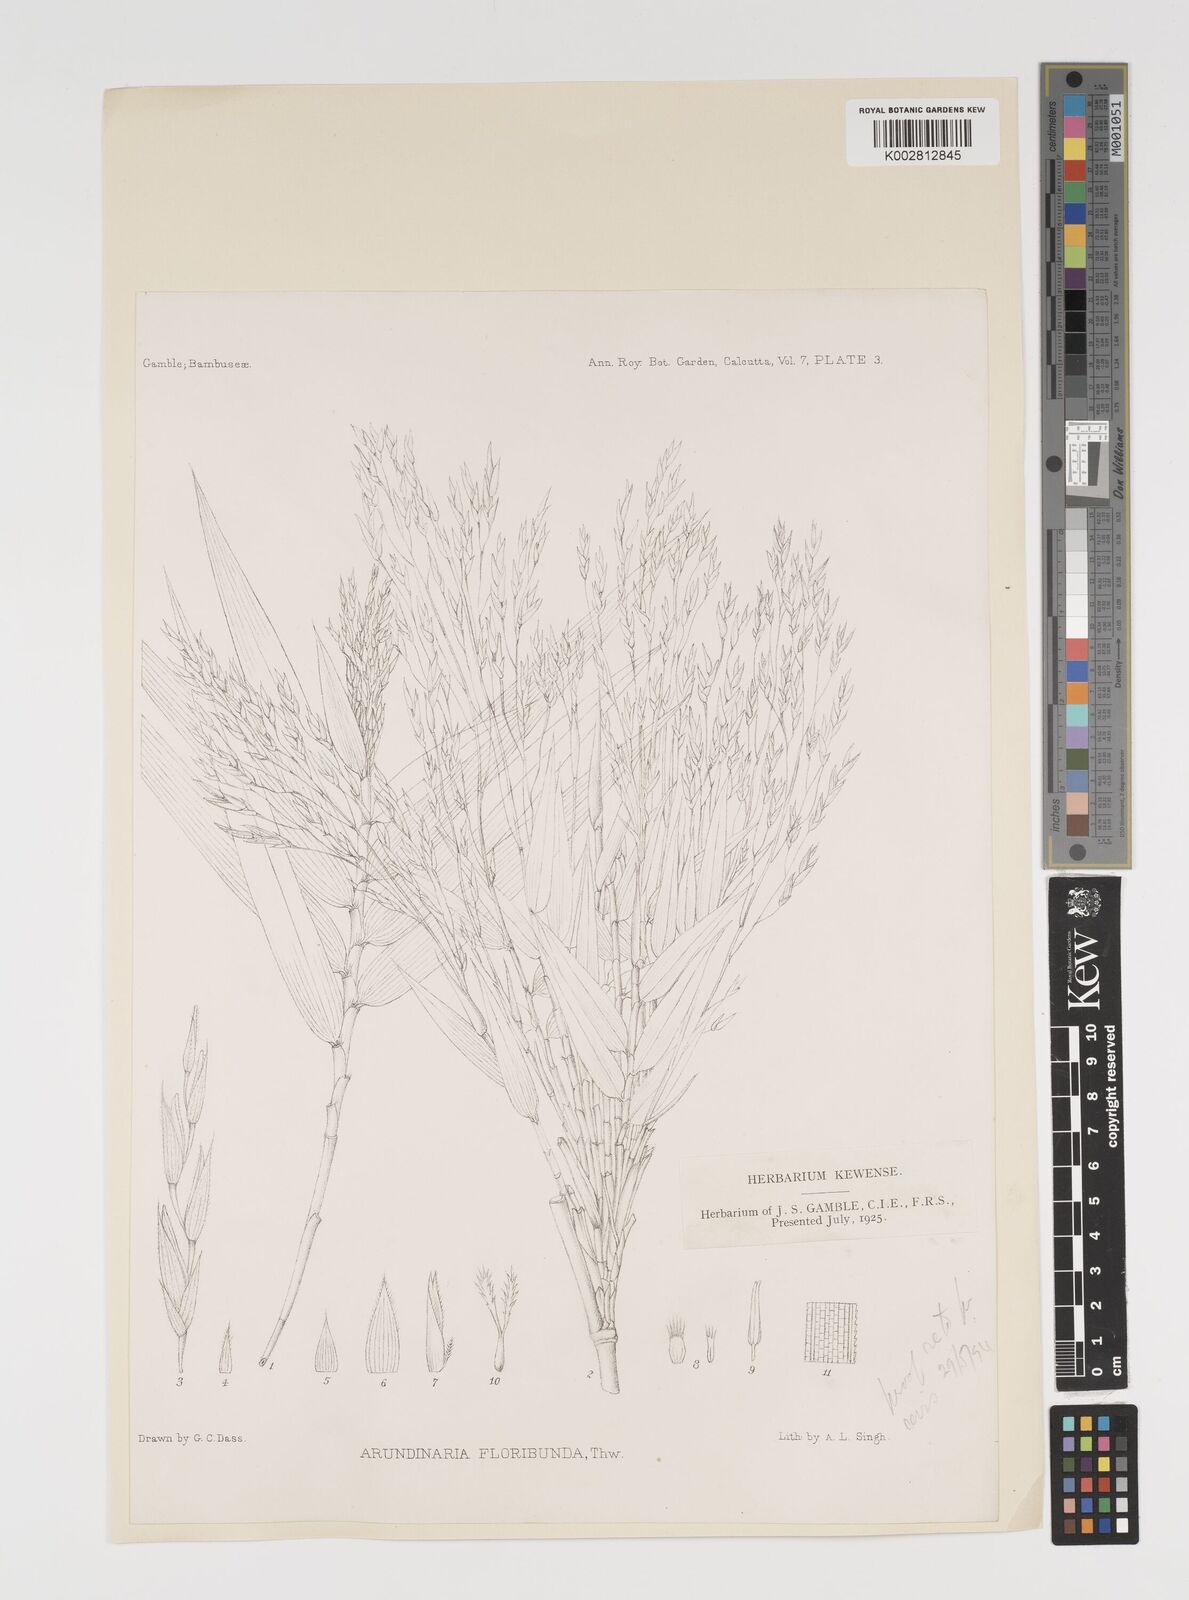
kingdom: Plantae
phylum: Tracheophyta
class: Liliopsida
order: Poales
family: Poaceae
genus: Kuruna
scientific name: Kuruna floribunda
